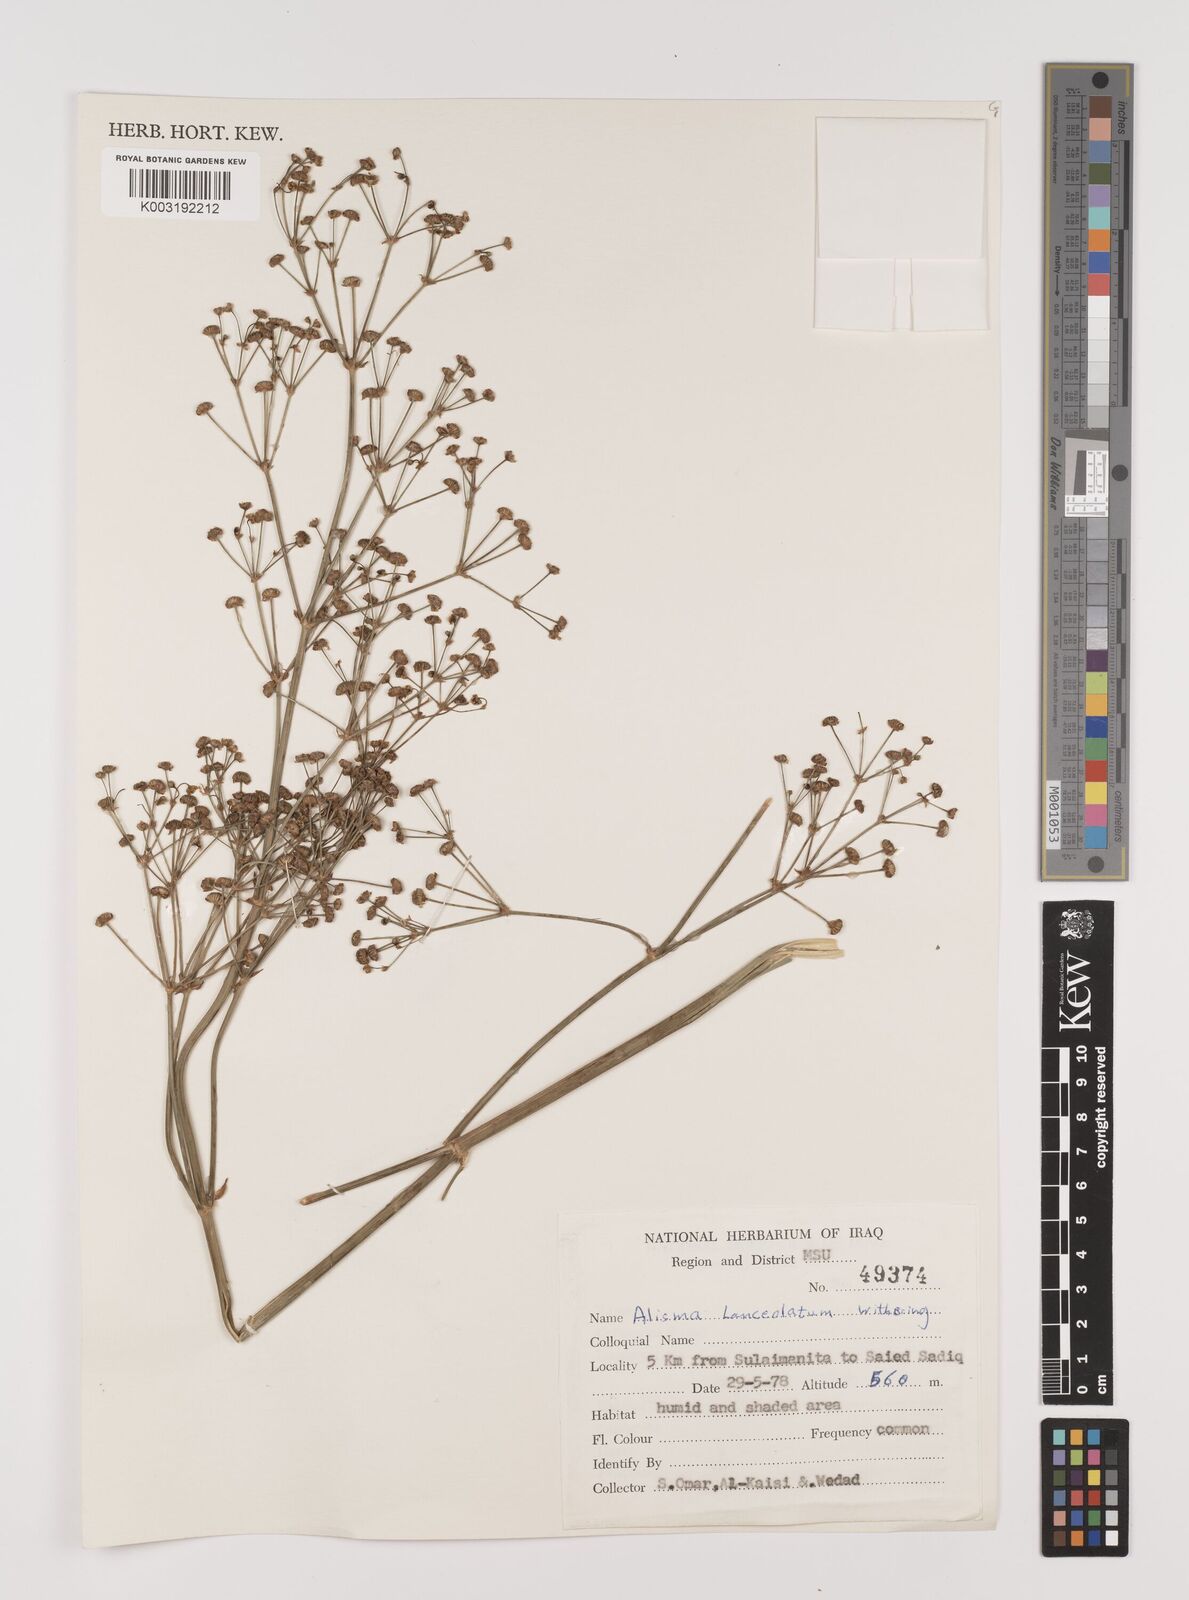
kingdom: Plantae
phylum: Tracheophyta
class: Liliopsida
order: Alismatales
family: Alismataceae
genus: Alisma
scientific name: Alisma lanceolatum
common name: Narrow-leaved water-plantain
